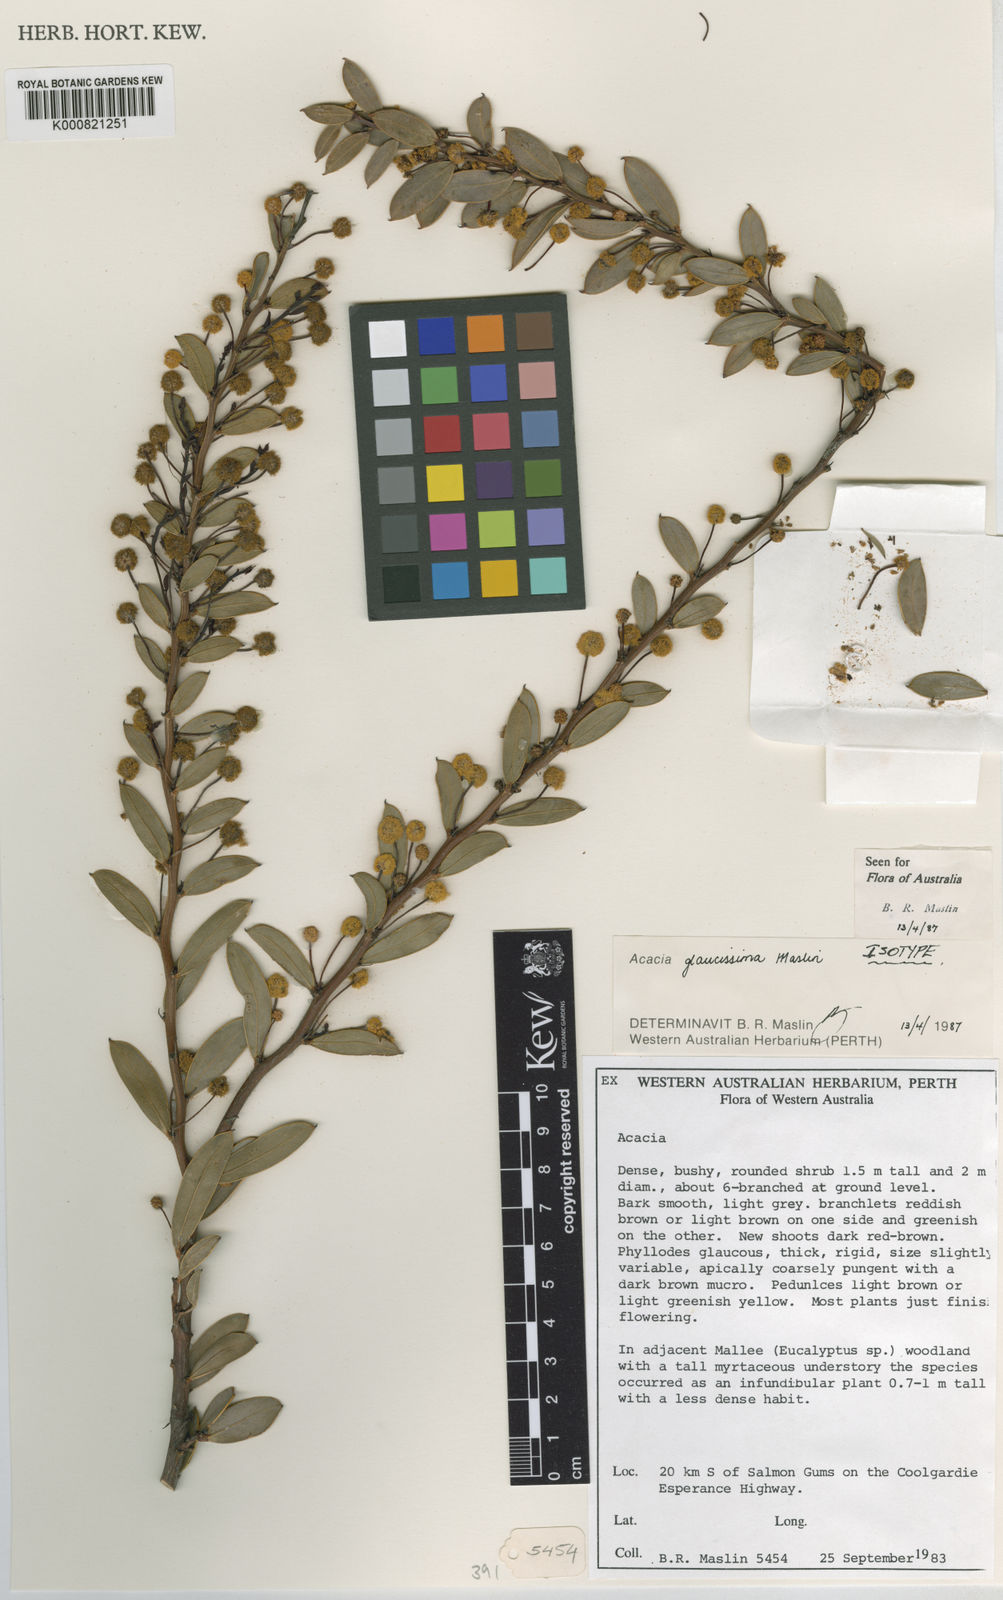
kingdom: Plantae
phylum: Tracheophyta
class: Magnoliopsida
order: Fabales
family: Fabaceae
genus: Acacia
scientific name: Acacia glaucissima
